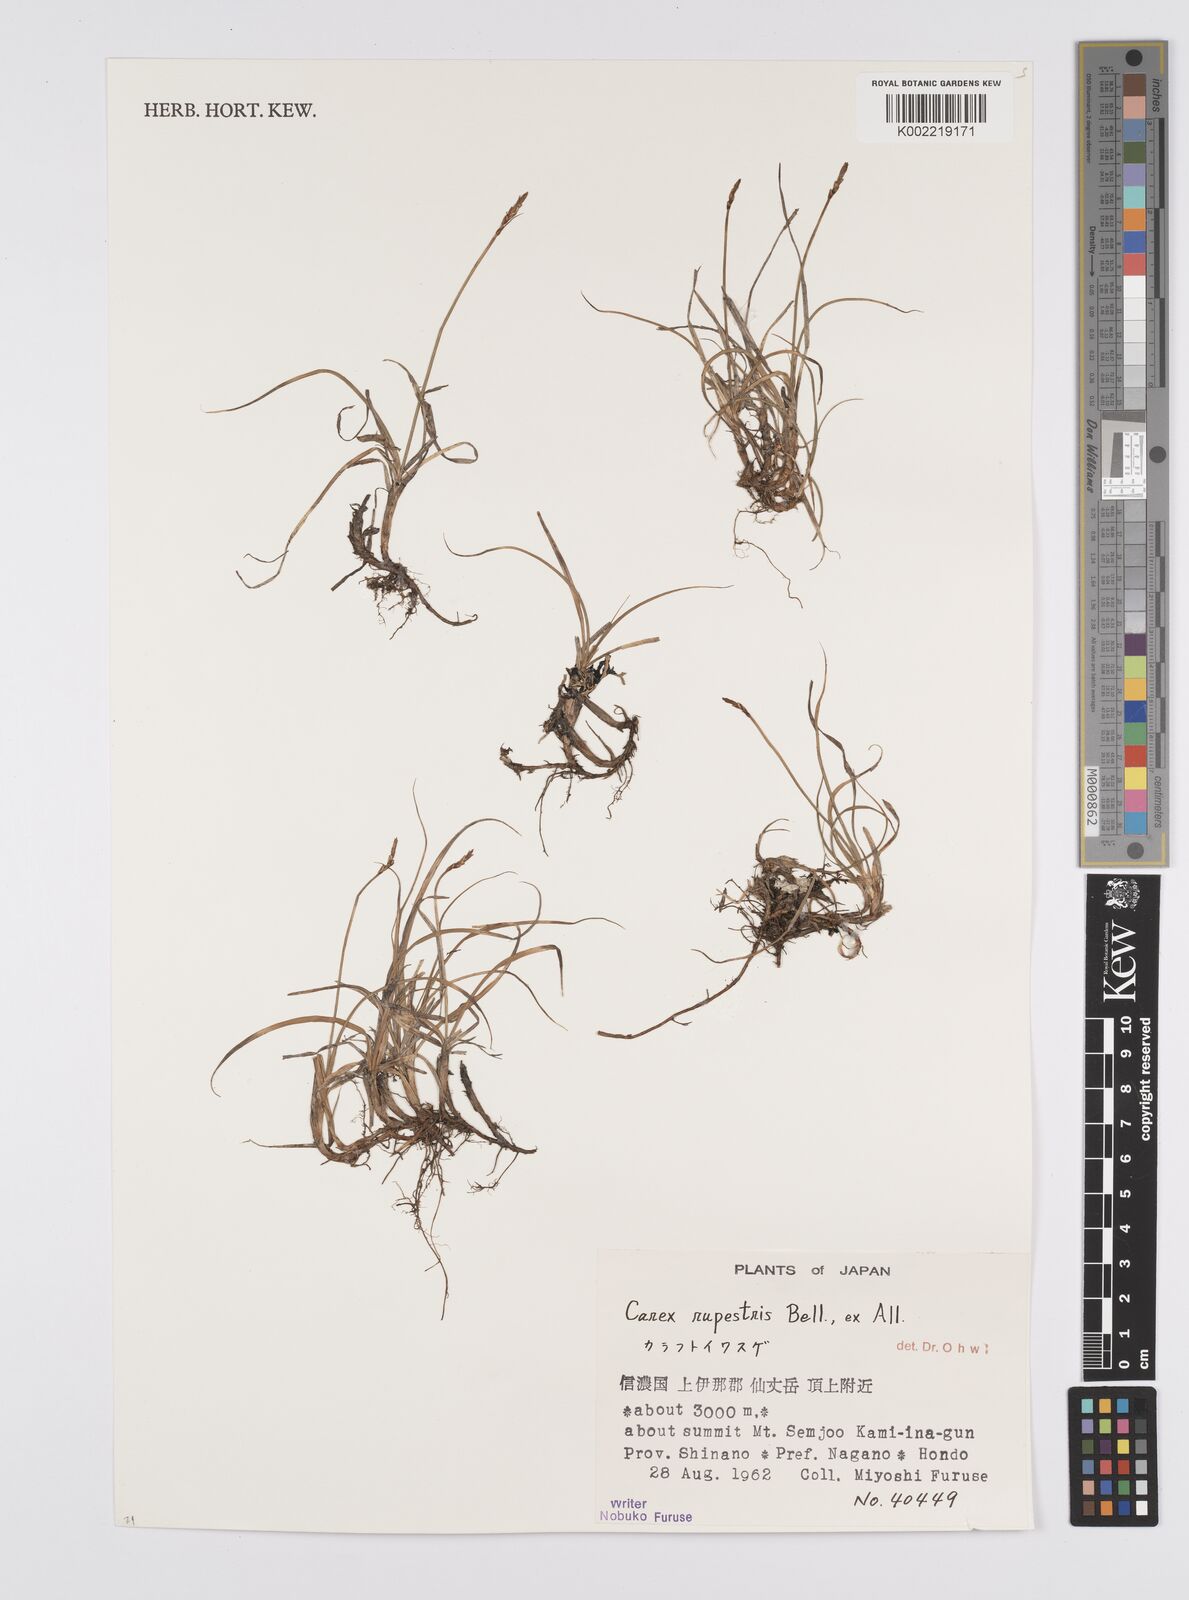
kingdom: Plantae
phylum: Tracheophyta
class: Liliopsida
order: Poales
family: Cyperaceae
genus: Carex
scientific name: Carex rupestris
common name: Rock sedge
